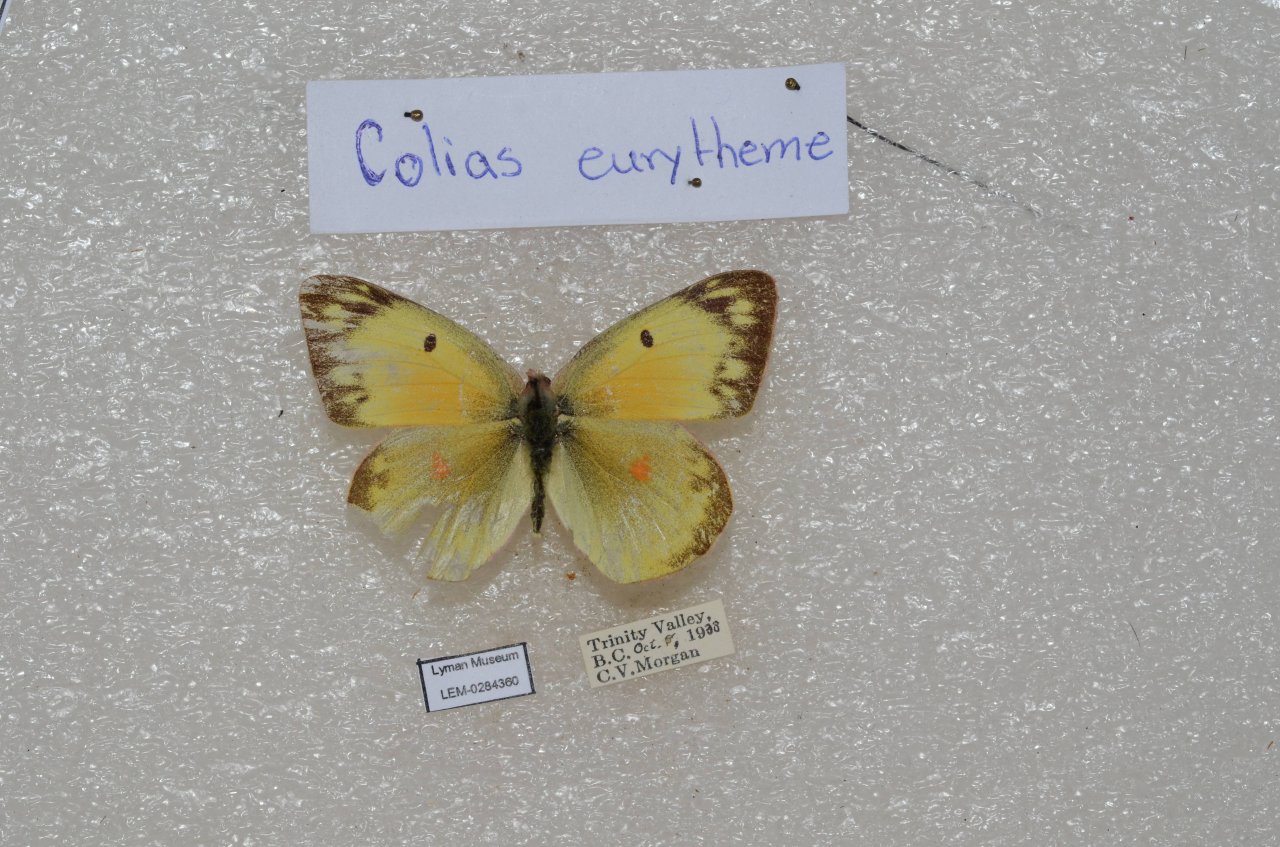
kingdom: Animalia
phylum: Arthropoda
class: Insecta
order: Lepidoptera
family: Pieridae
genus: Colias
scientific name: Colias eurytheme
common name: Orange Sulphur
